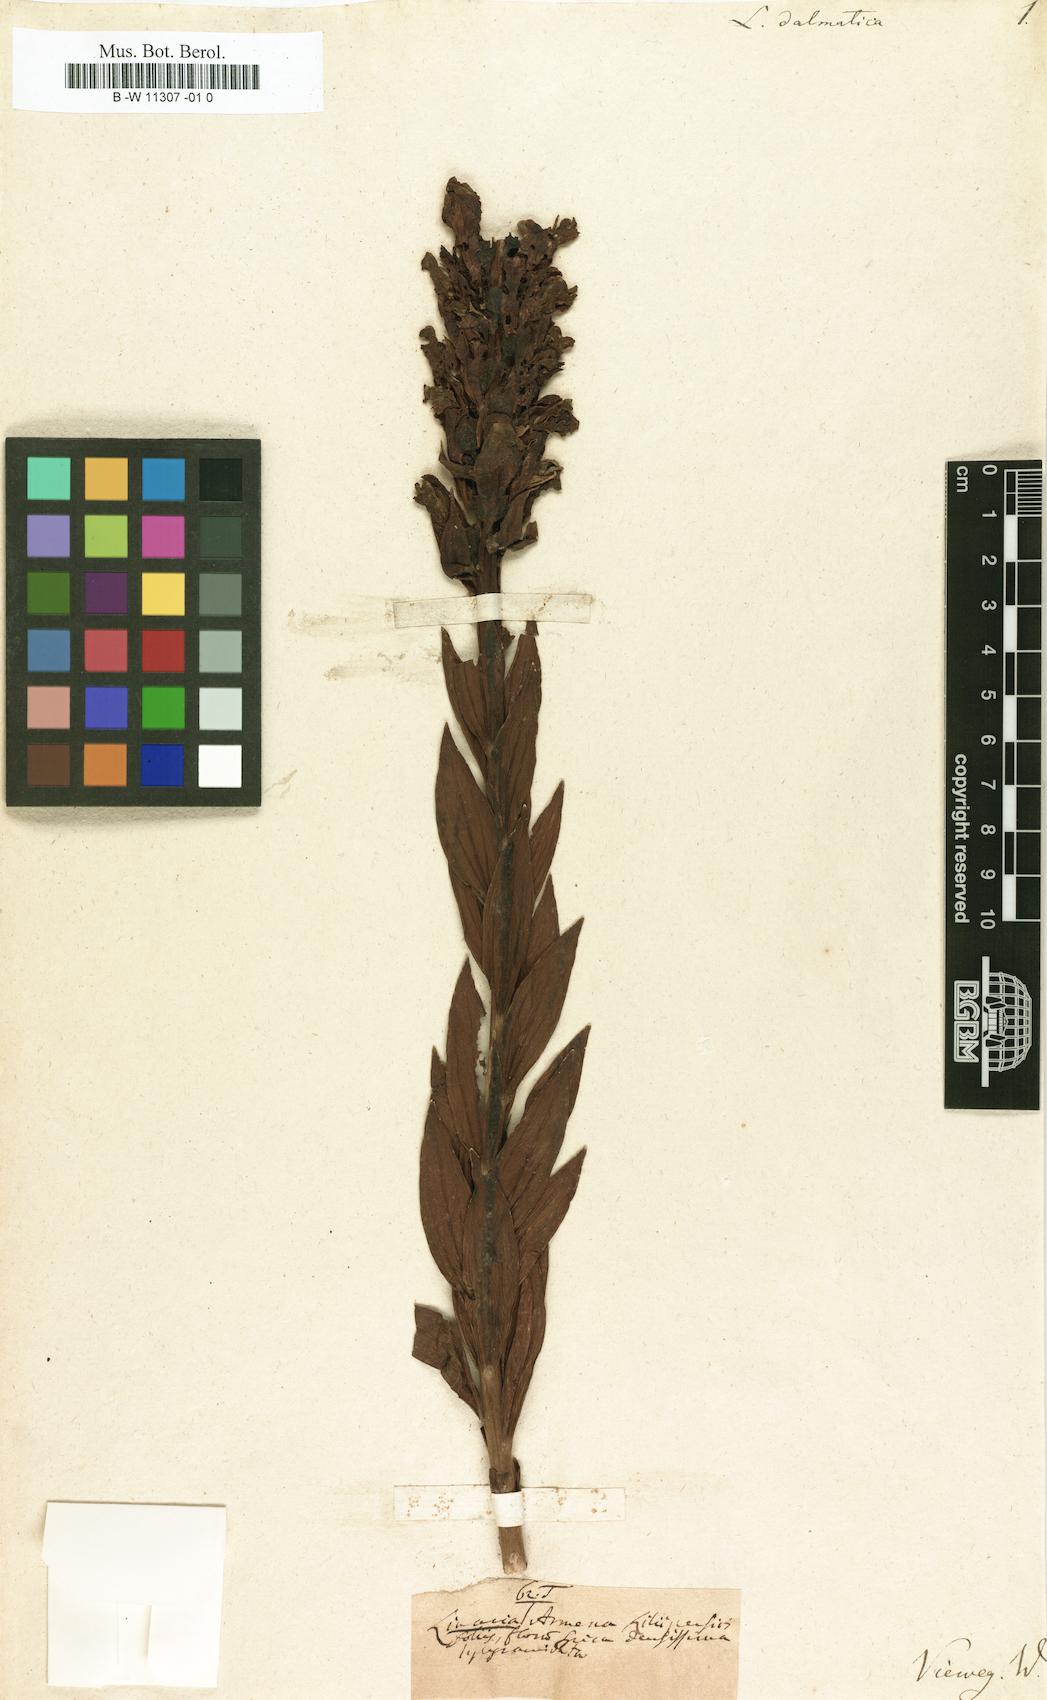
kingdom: Plantae
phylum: Tracheophyta
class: Magnoliopsida
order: Lamiales
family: Plantaginaceae
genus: Linaria
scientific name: Linaria dalmatica
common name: Dalmatian toadflax
